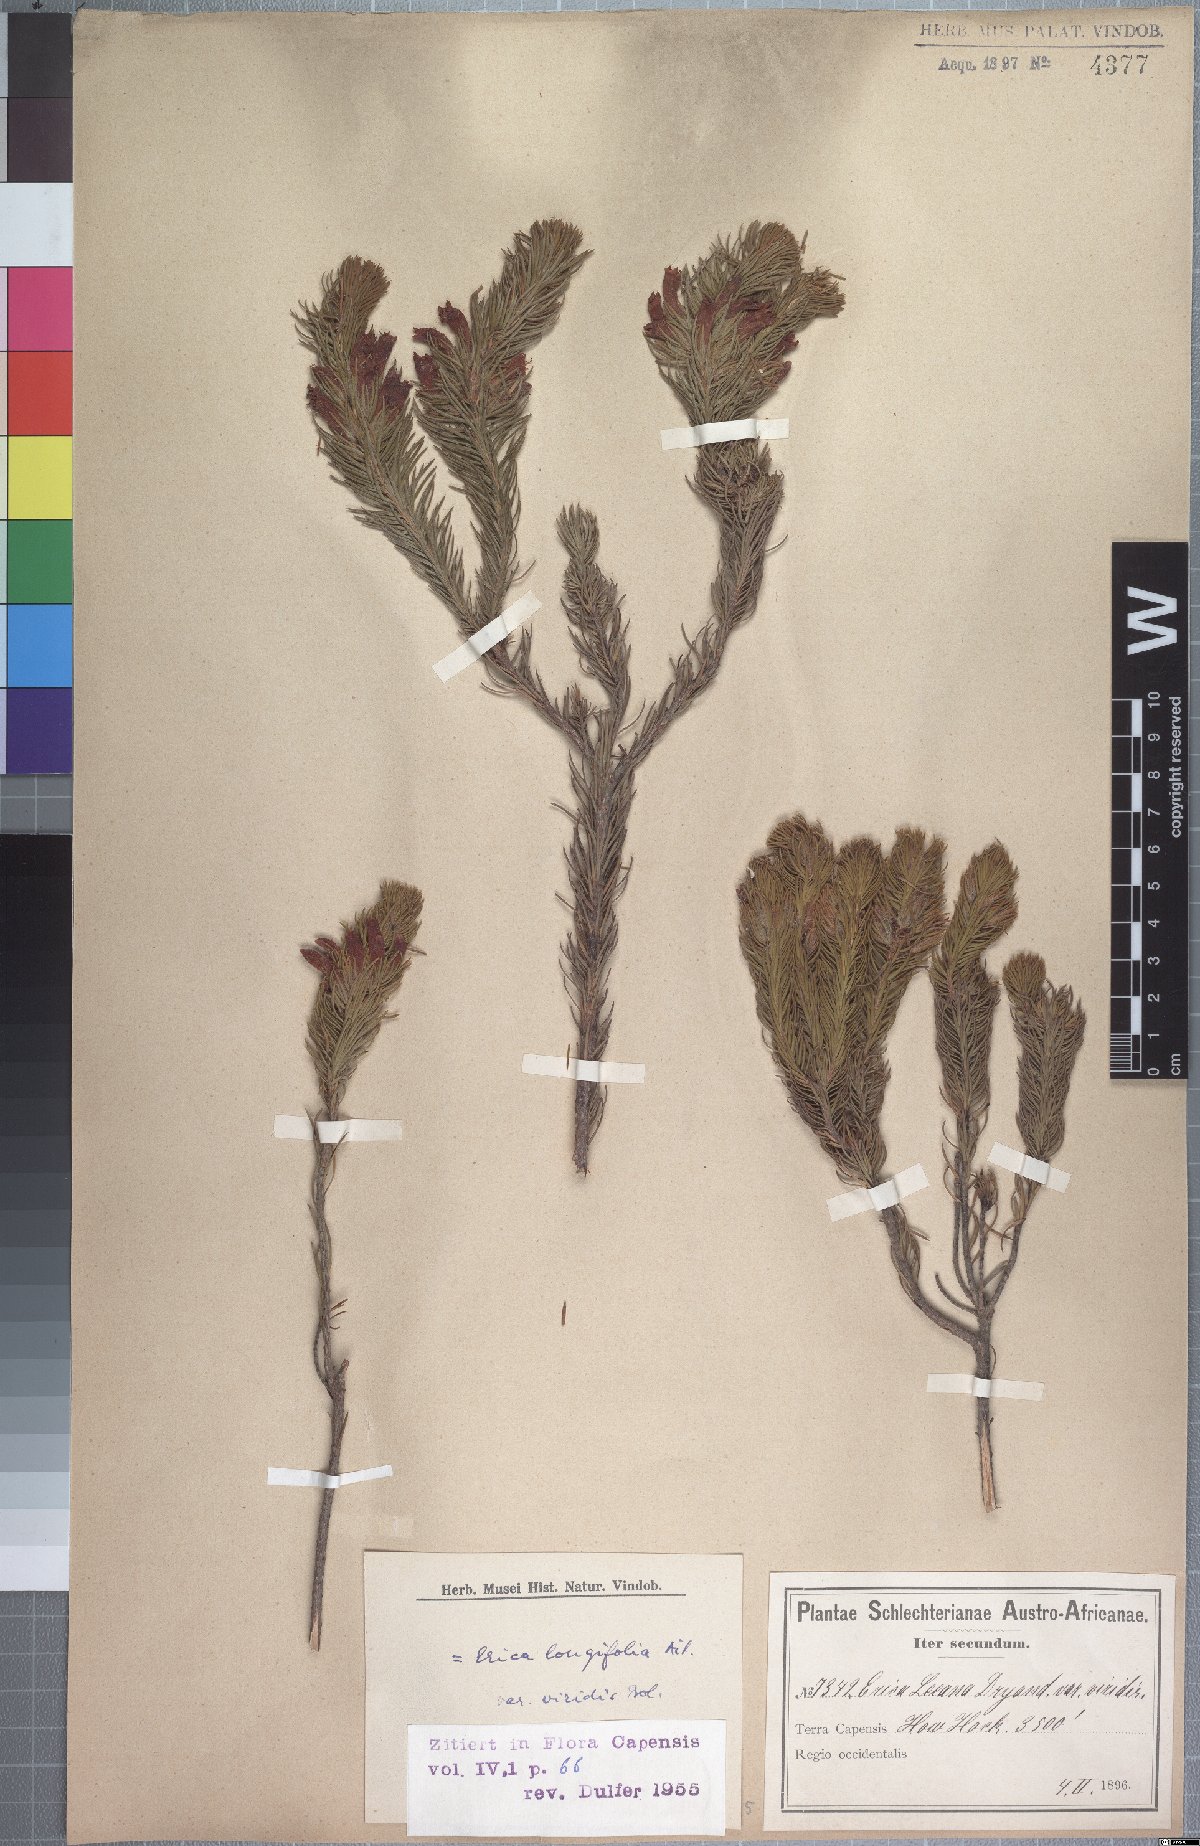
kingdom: Plantae
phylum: Tracheophyta
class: Magnoliopsida
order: Ericales
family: Ericaceae
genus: Erica
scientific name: Erica viscaria
